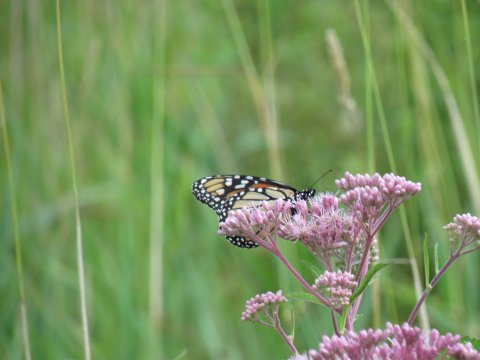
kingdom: Animalia
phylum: Arthropoda
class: Insecta
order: Lepidoptera
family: Nymphalidae
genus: Danaus
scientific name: Danaus plexippus
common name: Monarch
